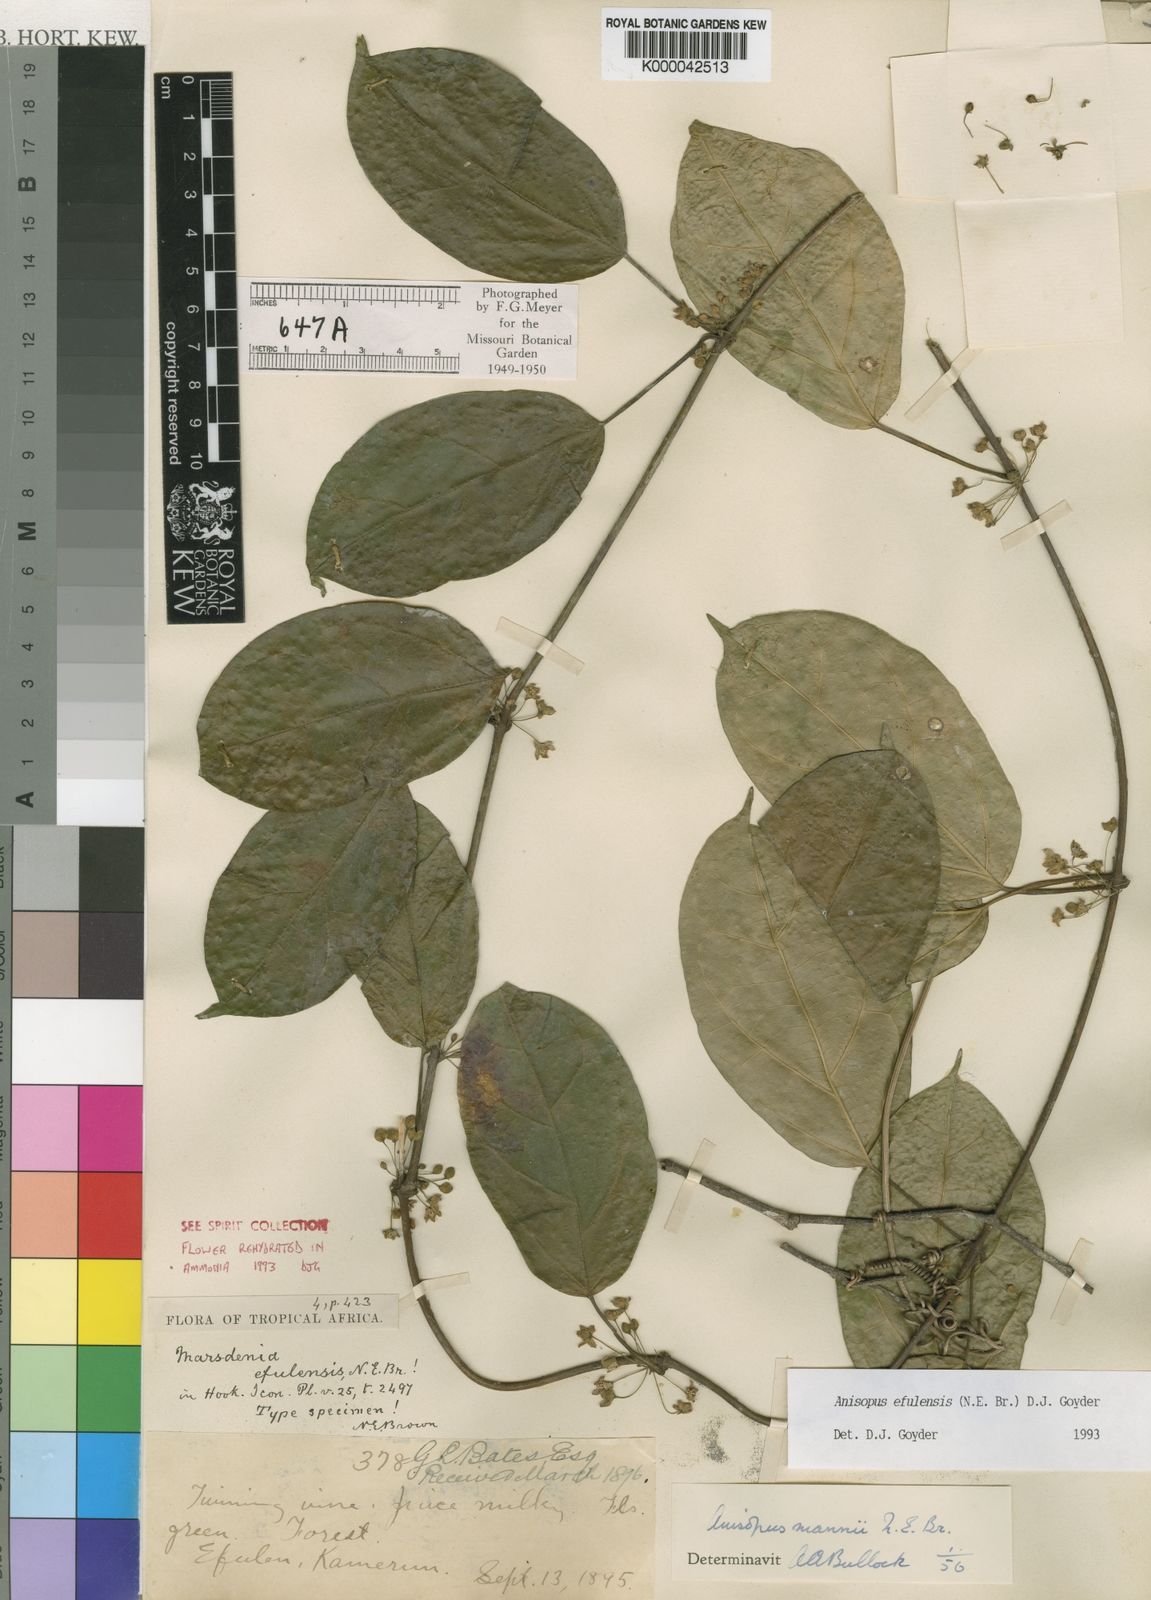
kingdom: Plantae
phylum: Tracheophyta
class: Magnoliopsida
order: Gentianales
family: Apocynaceae
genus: Anisopus
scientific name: Anisopus efulensis
